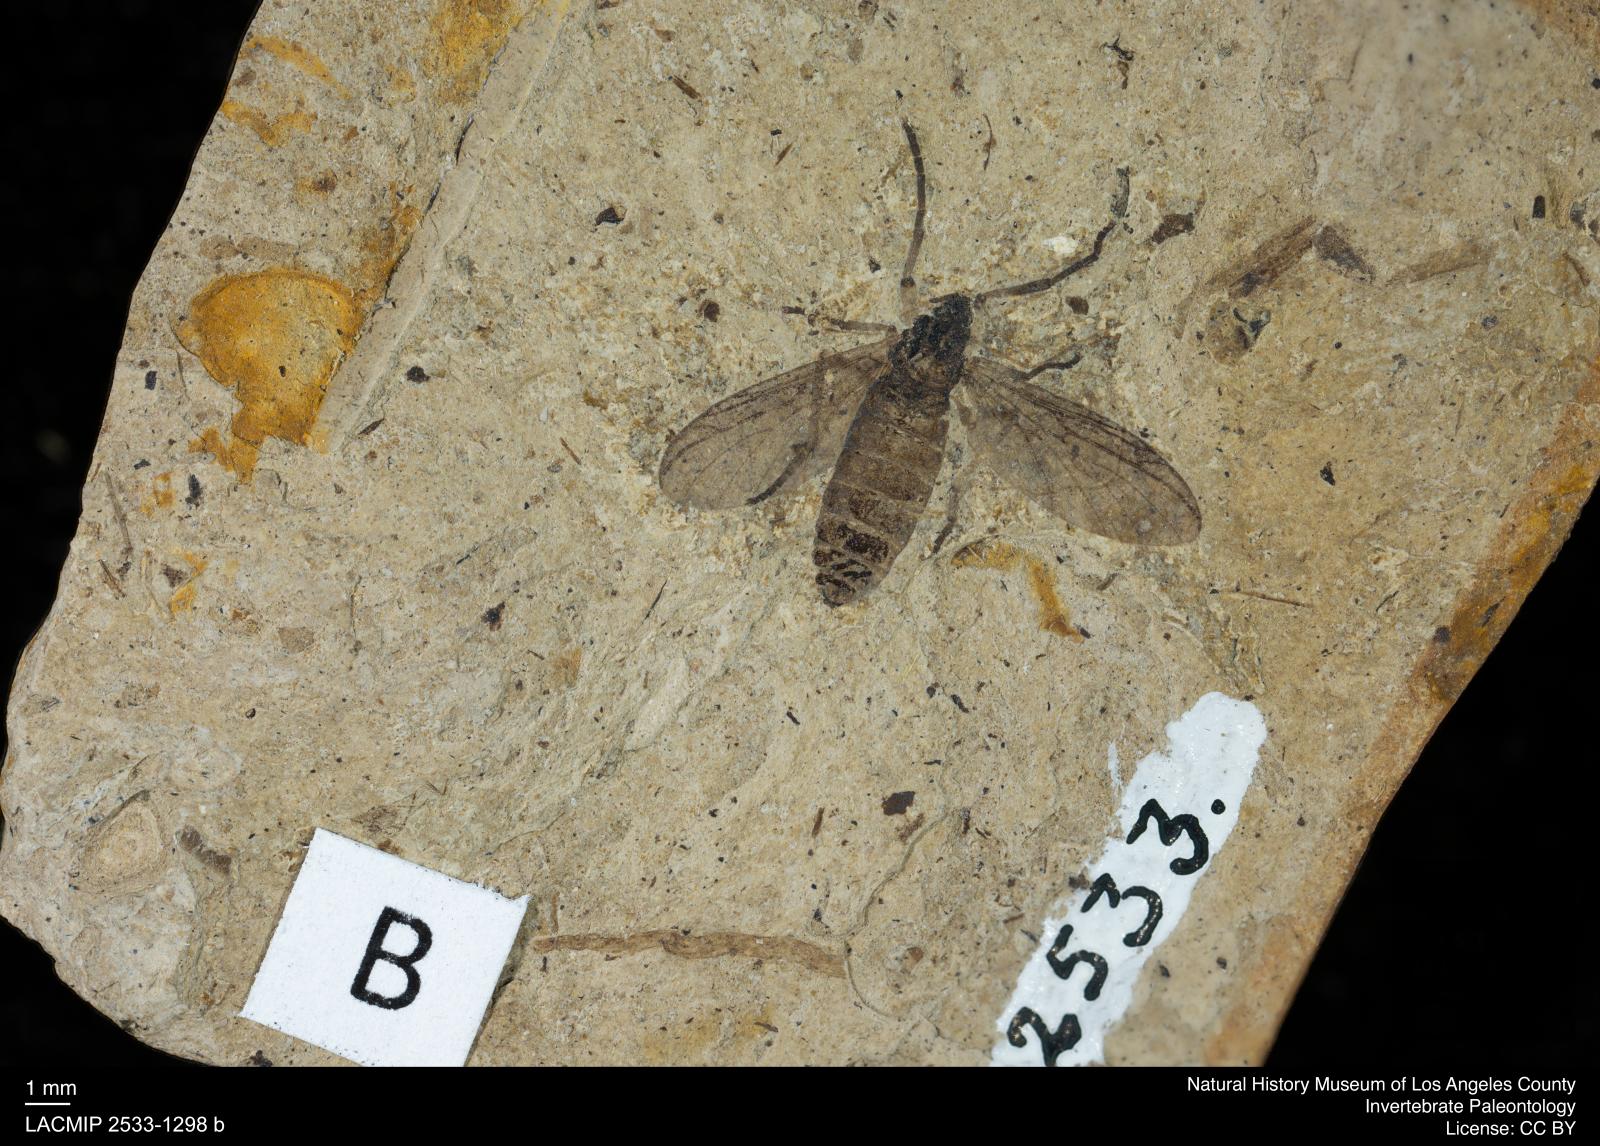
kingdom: Animalia
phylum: Arthropoda
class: Insecta
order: Diptera
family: Bibionidae
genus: Plecia
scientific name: Plecia pinguis
